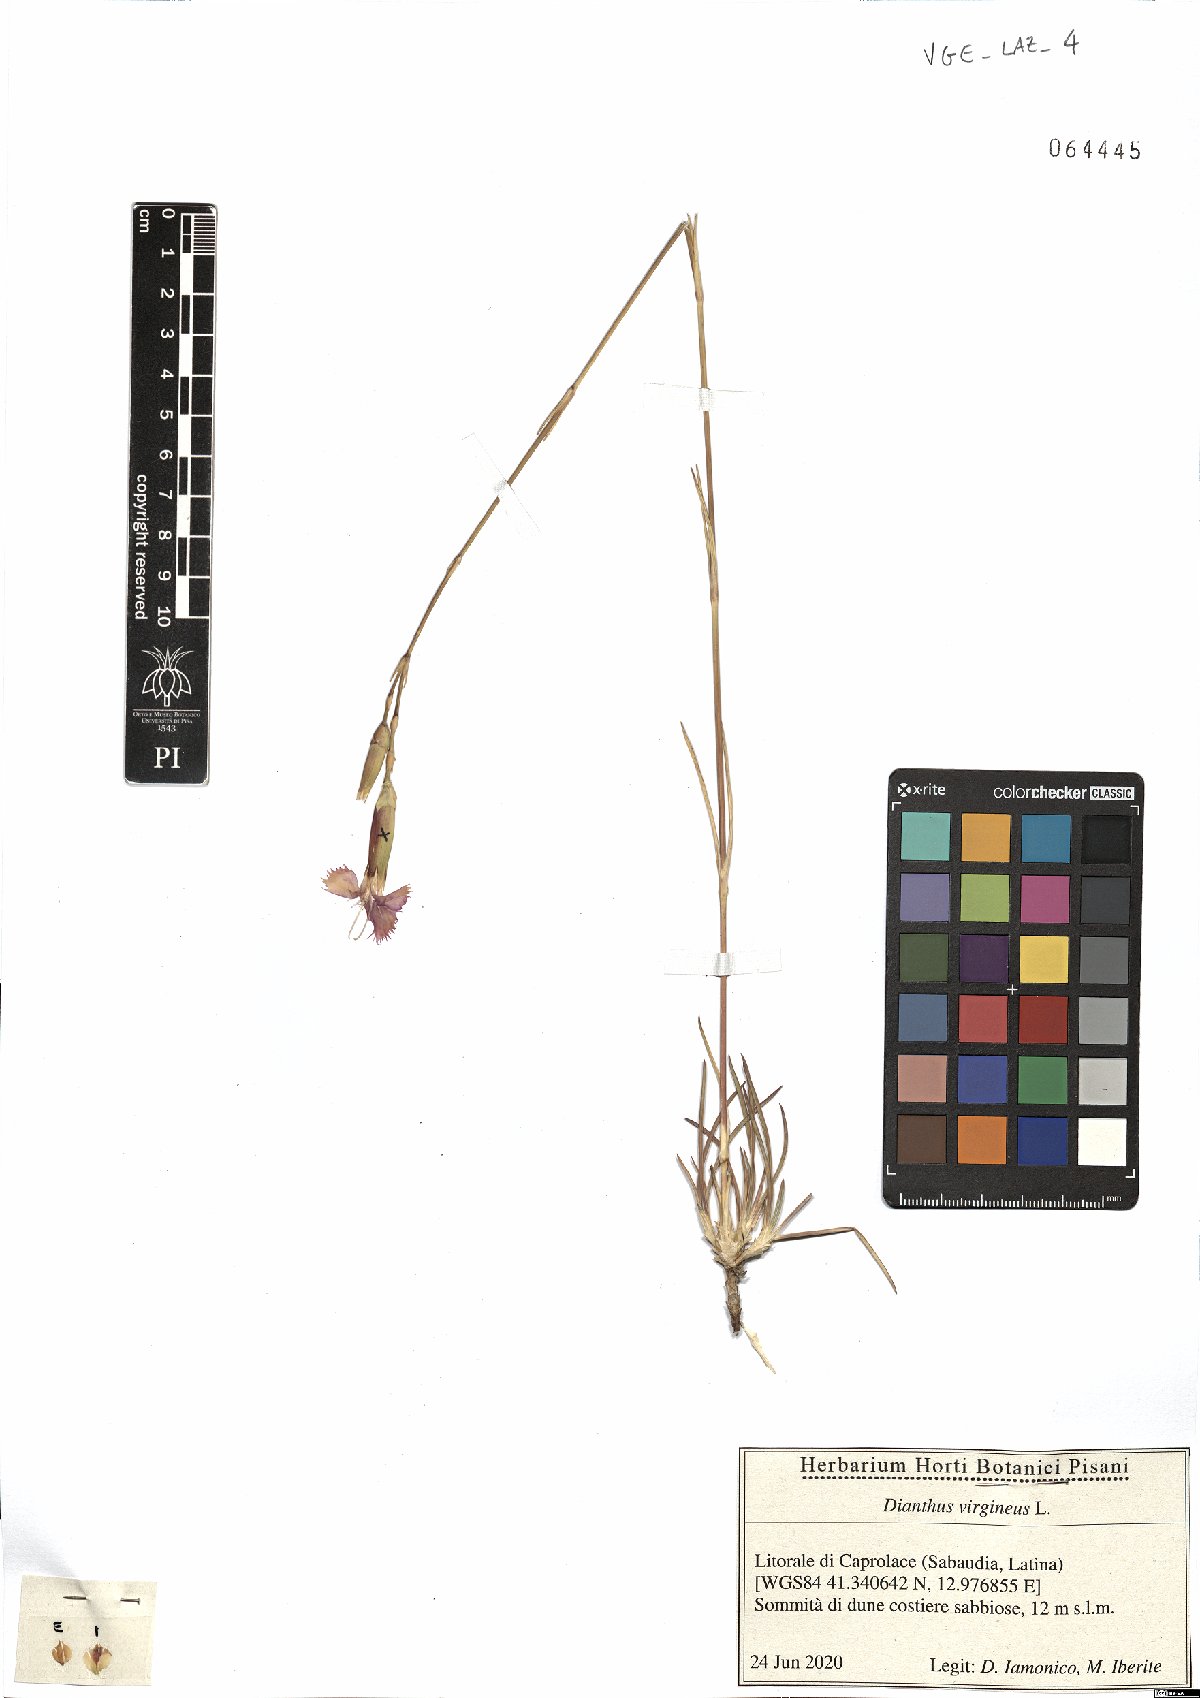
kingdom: Plantae
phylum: Tracheophyta
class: Magnoliopsida
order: Caryophyllales
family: Caryophyllaceae
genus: Dianthus
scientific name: Dianthus virgineus
